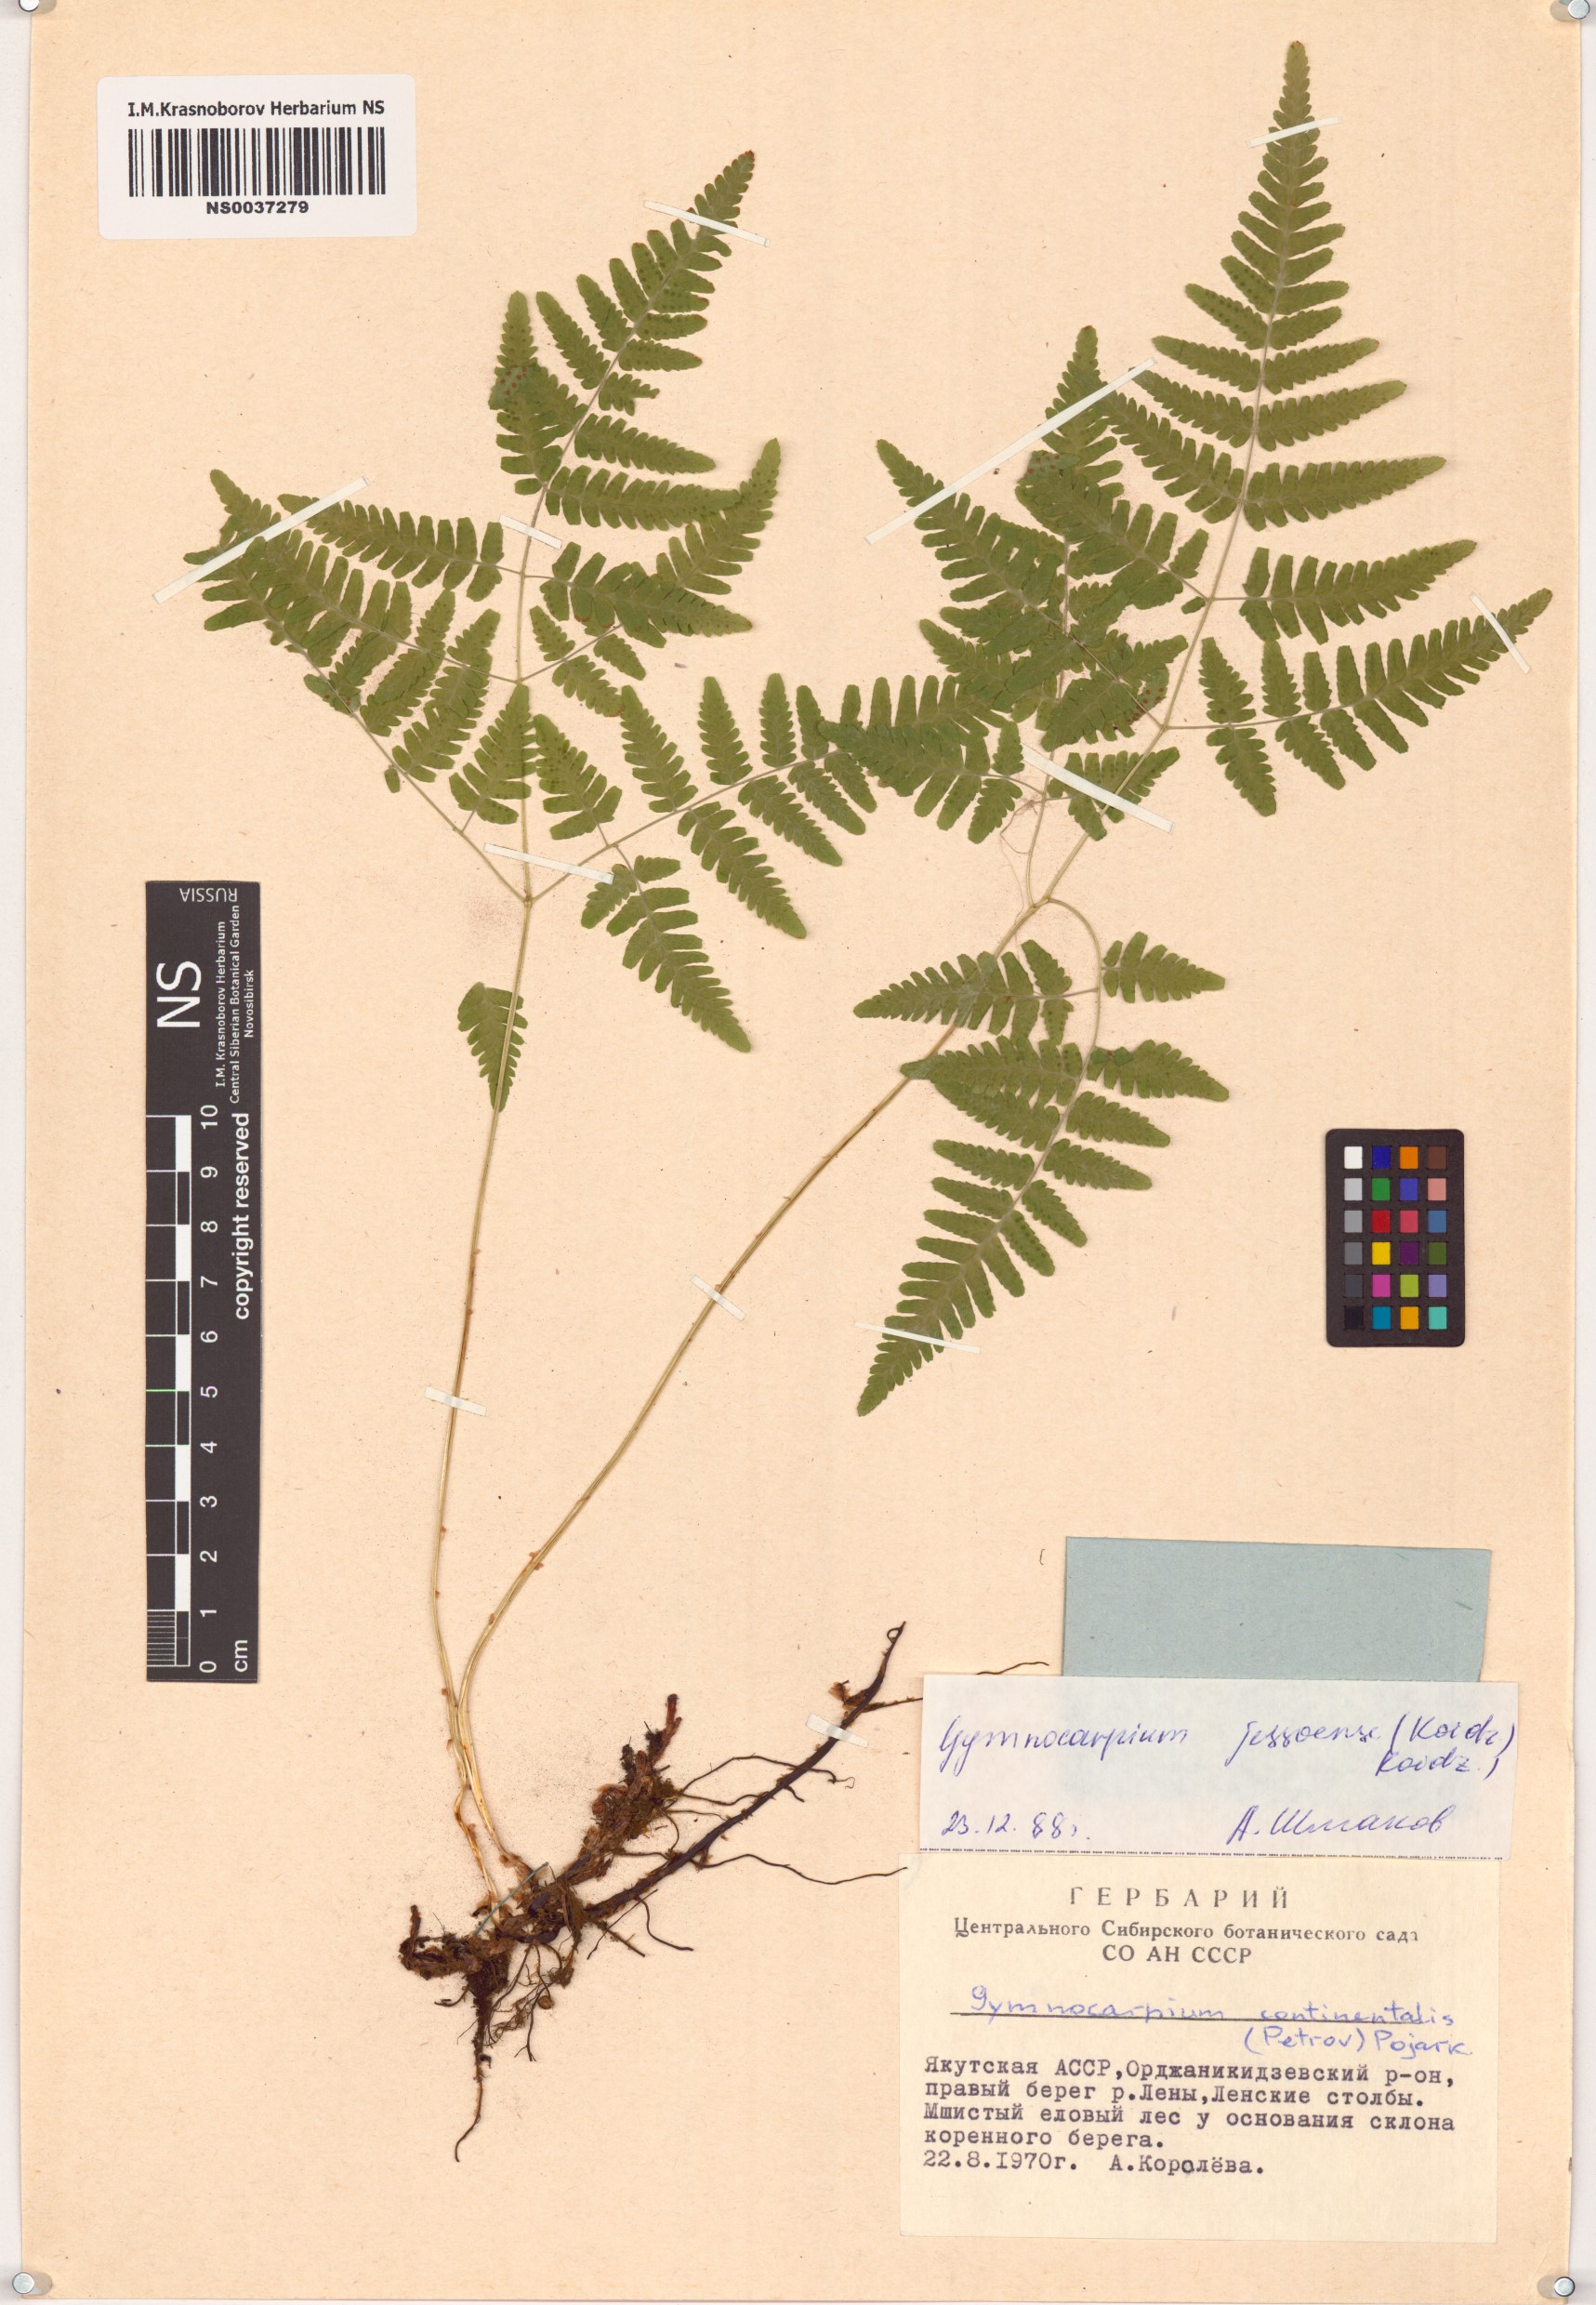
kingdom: Plantae
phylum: Tracheophyta
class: Polypodiopsida
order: Polypodiales
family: Cystopteridaceae
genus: Gymnocarpium
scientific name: Gymnocarpium jessoense
